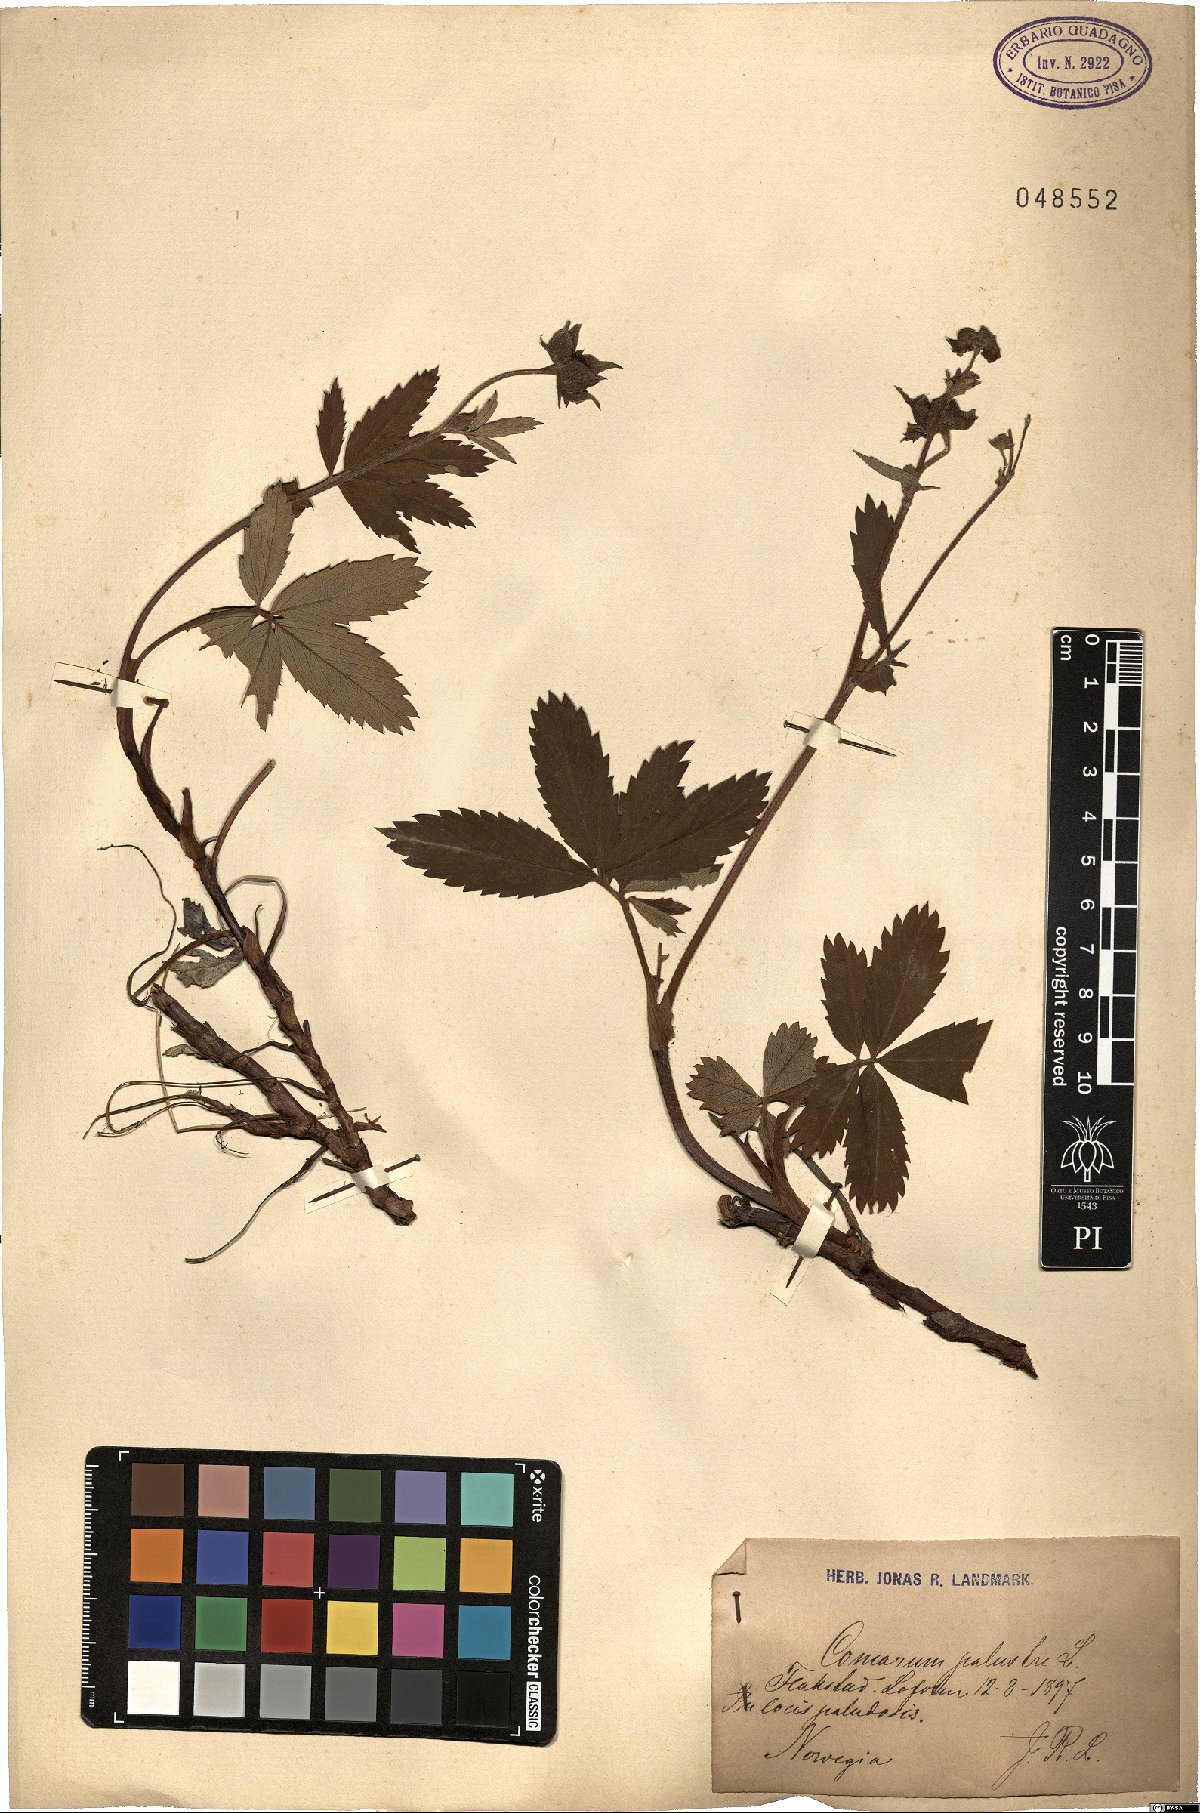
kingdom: Plantae
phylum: Tracheophyta
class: Magnoliopsida
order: Rosales
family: Rosaceae
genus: Comarum
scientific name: Comarum palustre
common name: Marsh cinquefoil
